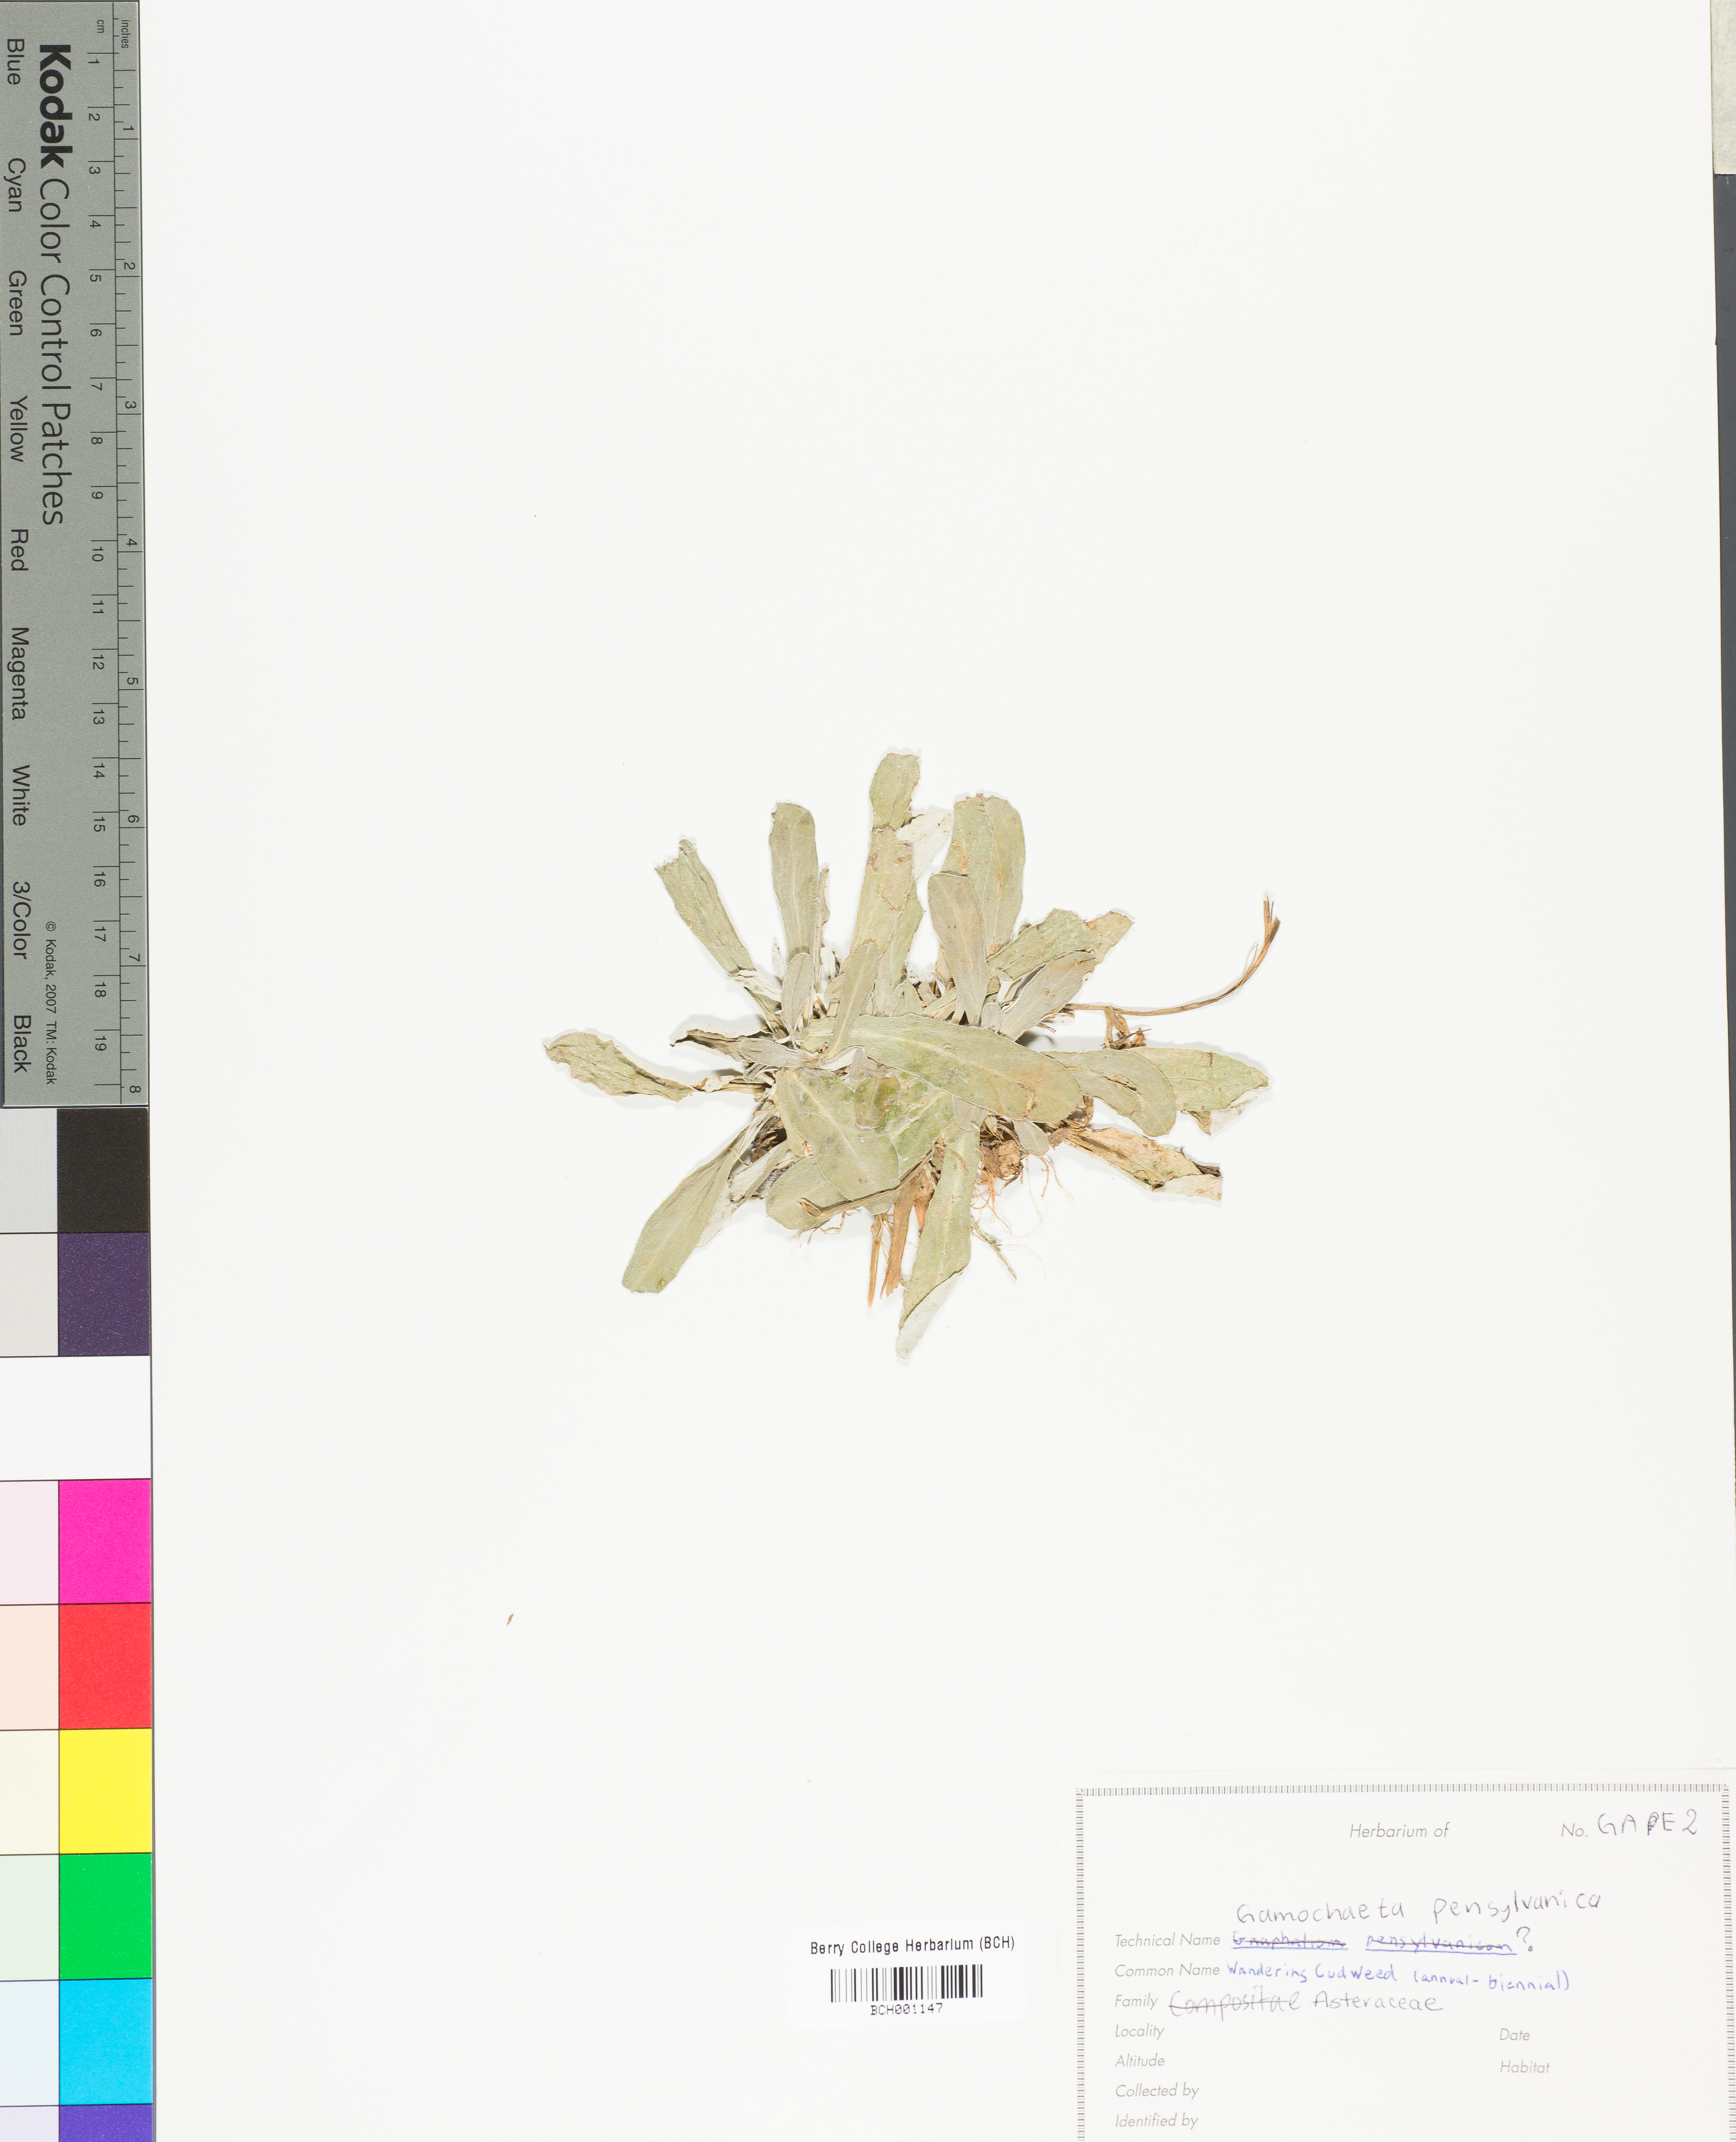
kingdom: Plantae
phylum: Tracheophyta
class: Magnoliopsida
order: Asterales
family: Asteraceae
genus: Gamochaeta
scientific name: Gamochaeta pensylvanica
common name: Pennsylvania everlasting
